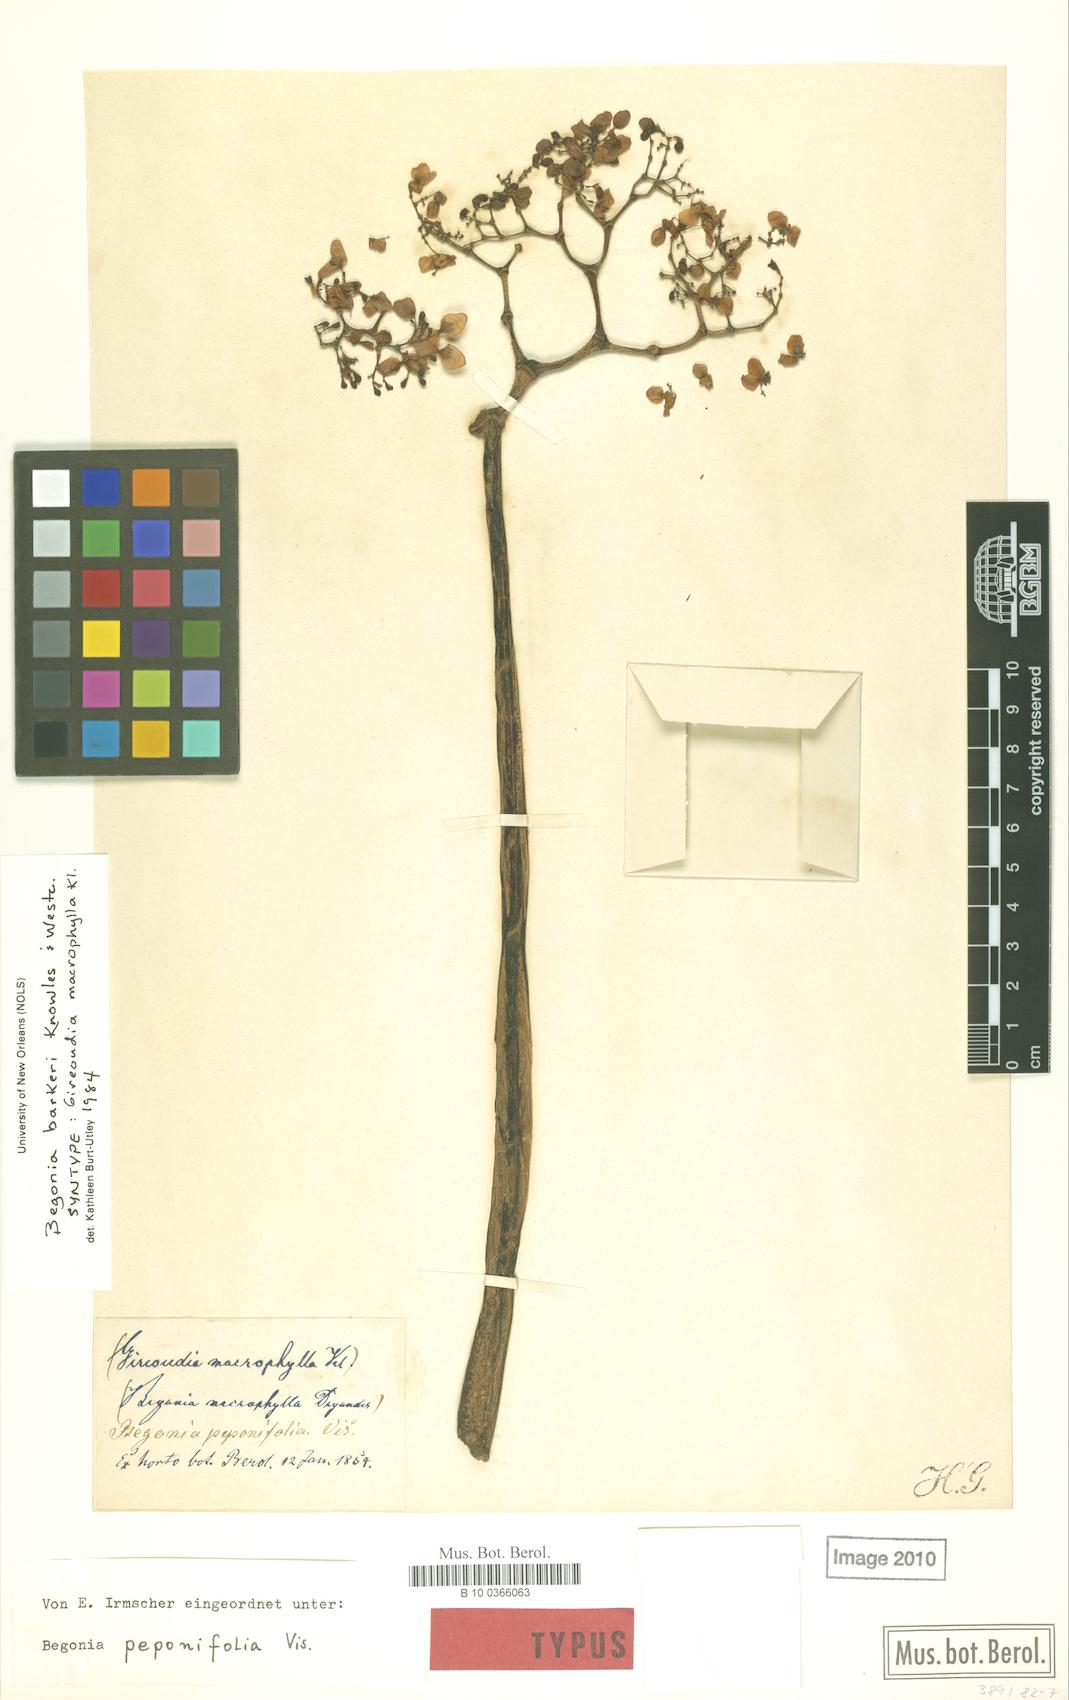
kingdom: Plantae
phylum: Tracheophyta
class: Magnoliopsida
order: Cucurbitales
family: Begoniaceae
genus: Begonia
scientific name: Begonia barkeri
